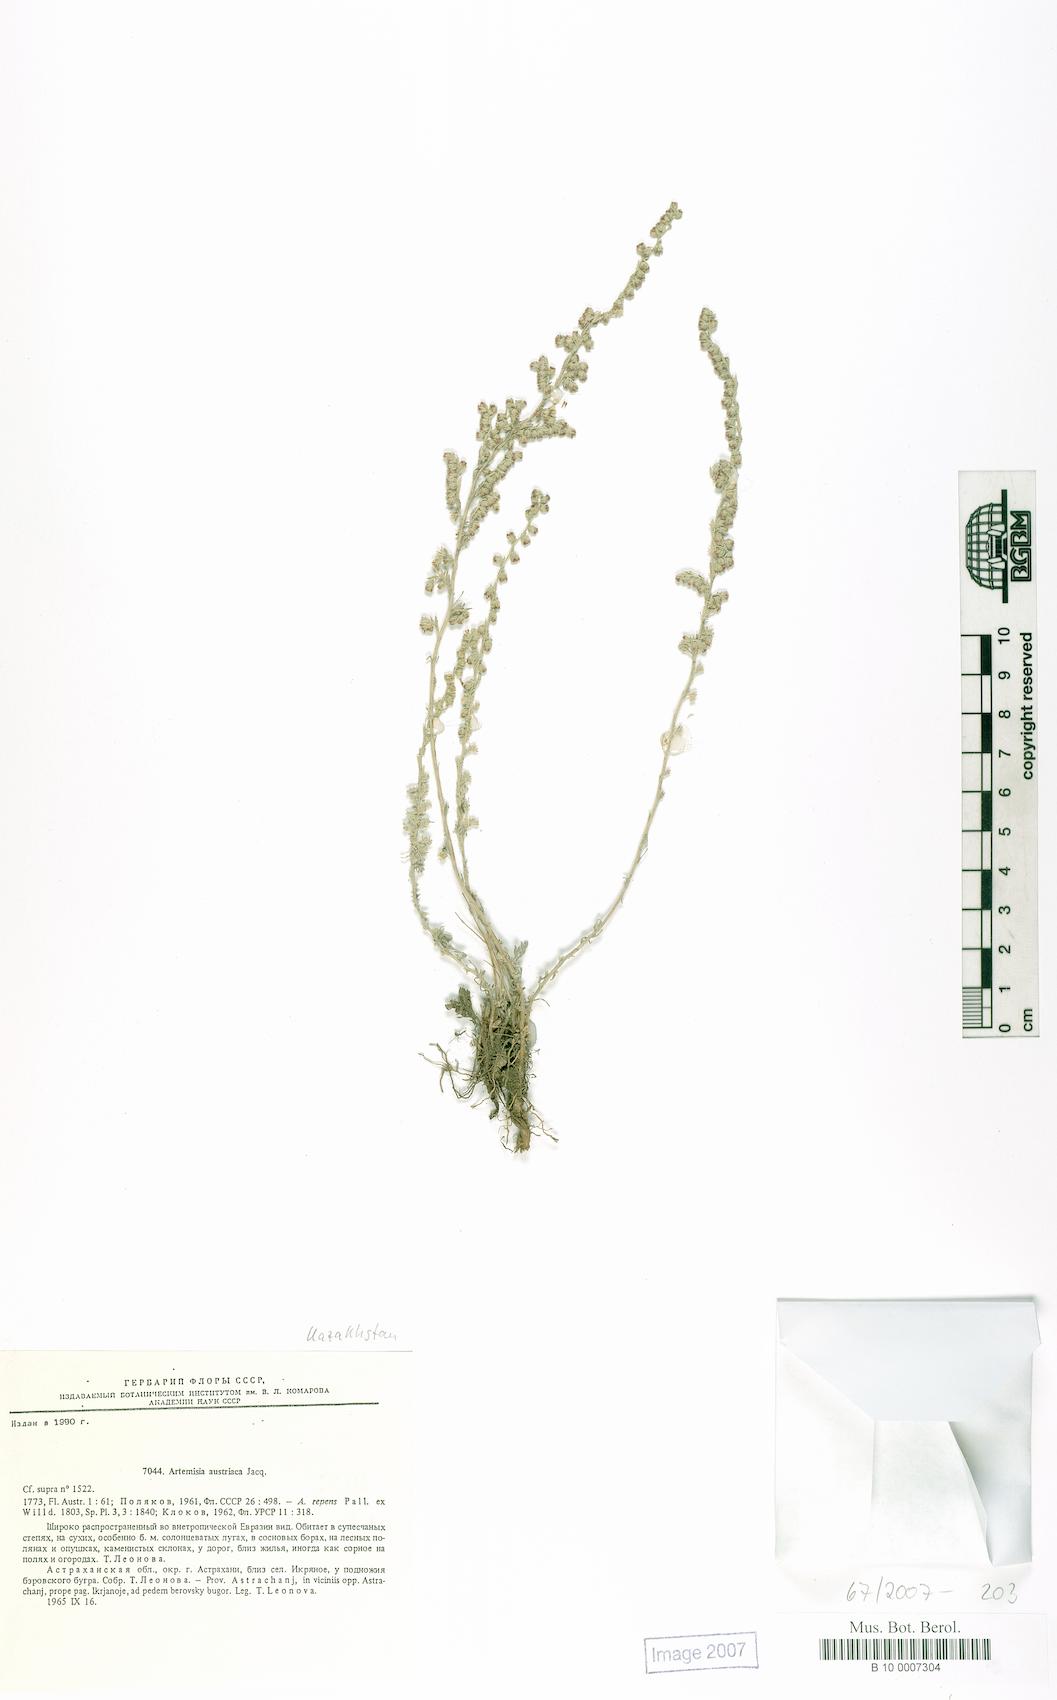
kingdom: Plantae
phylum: Tracheophyta
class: Magnoliopsida
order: Asterales
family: Asteraceae
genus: Artemisia
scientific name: Artemisia austriaca
